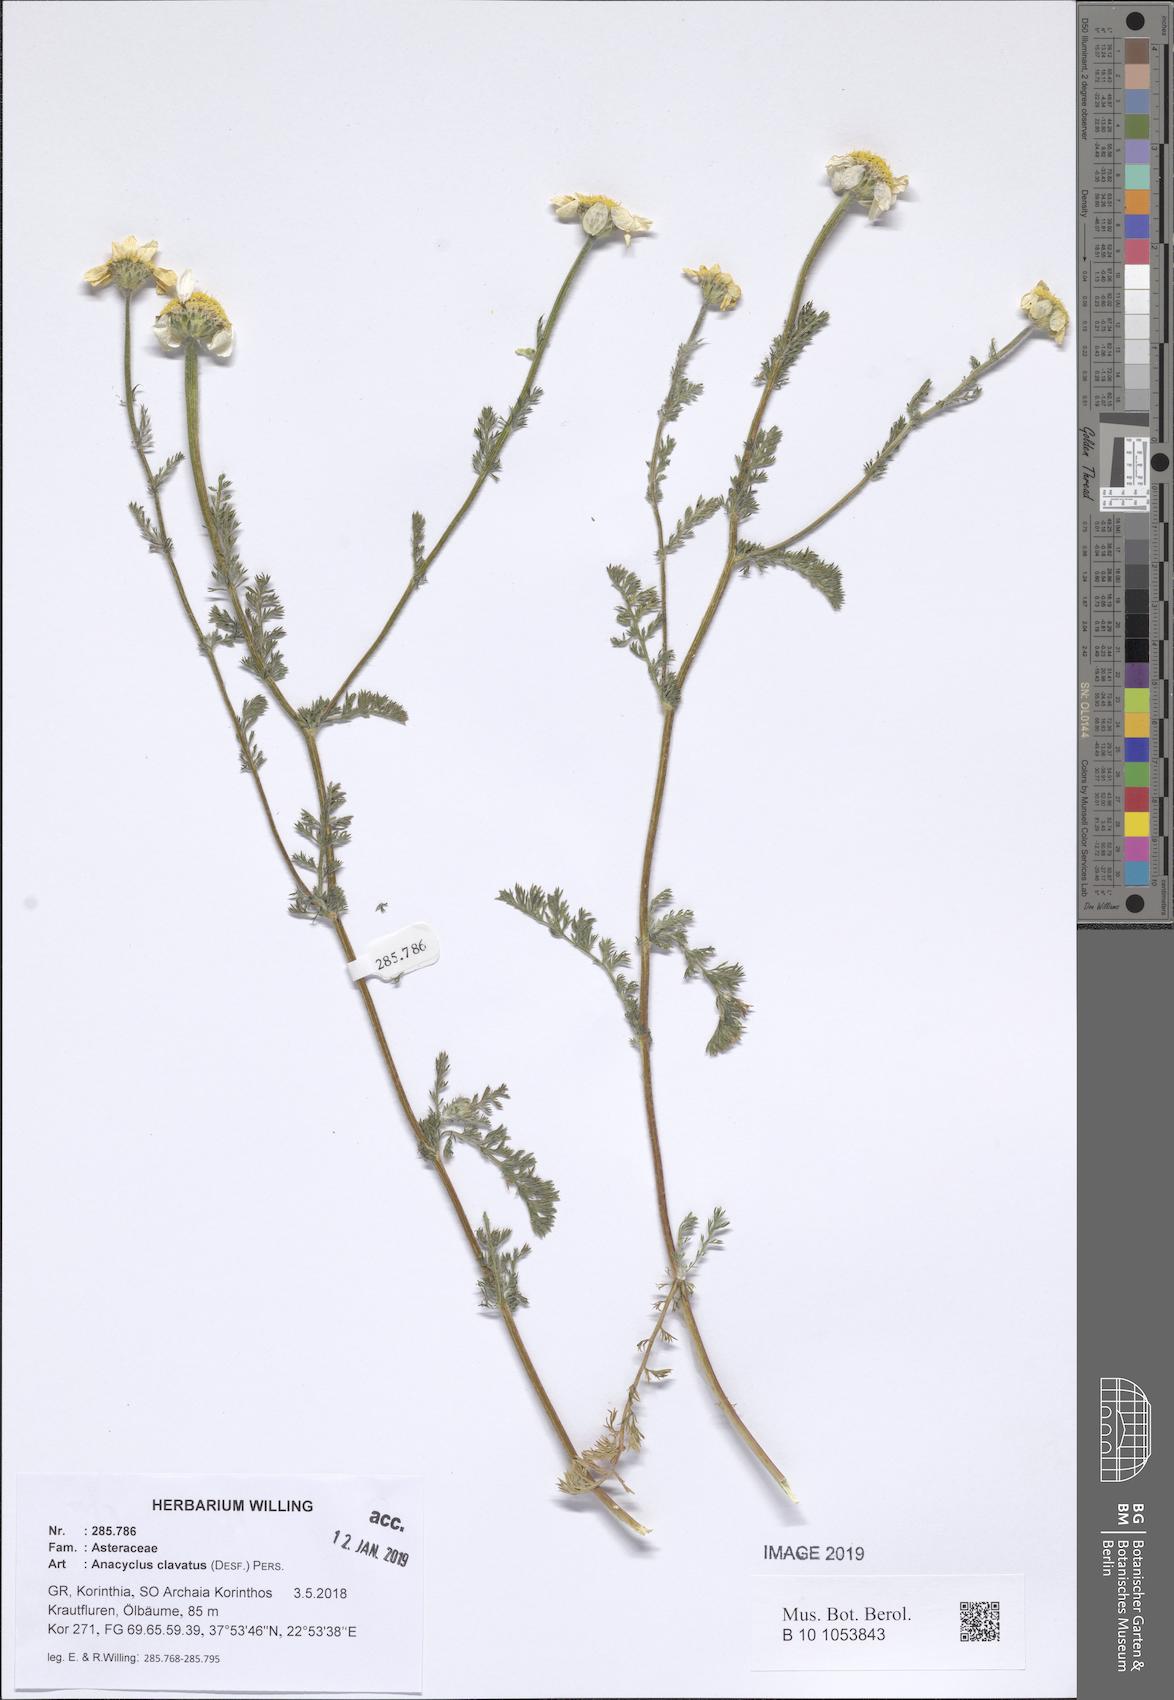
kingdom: Plantae
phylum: Tracheophyta
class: Magnoliopsida
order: Asterales
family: Asteraceae
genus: Anacyclus
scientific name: Anacyclus clavatus
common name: Whitebuttons
